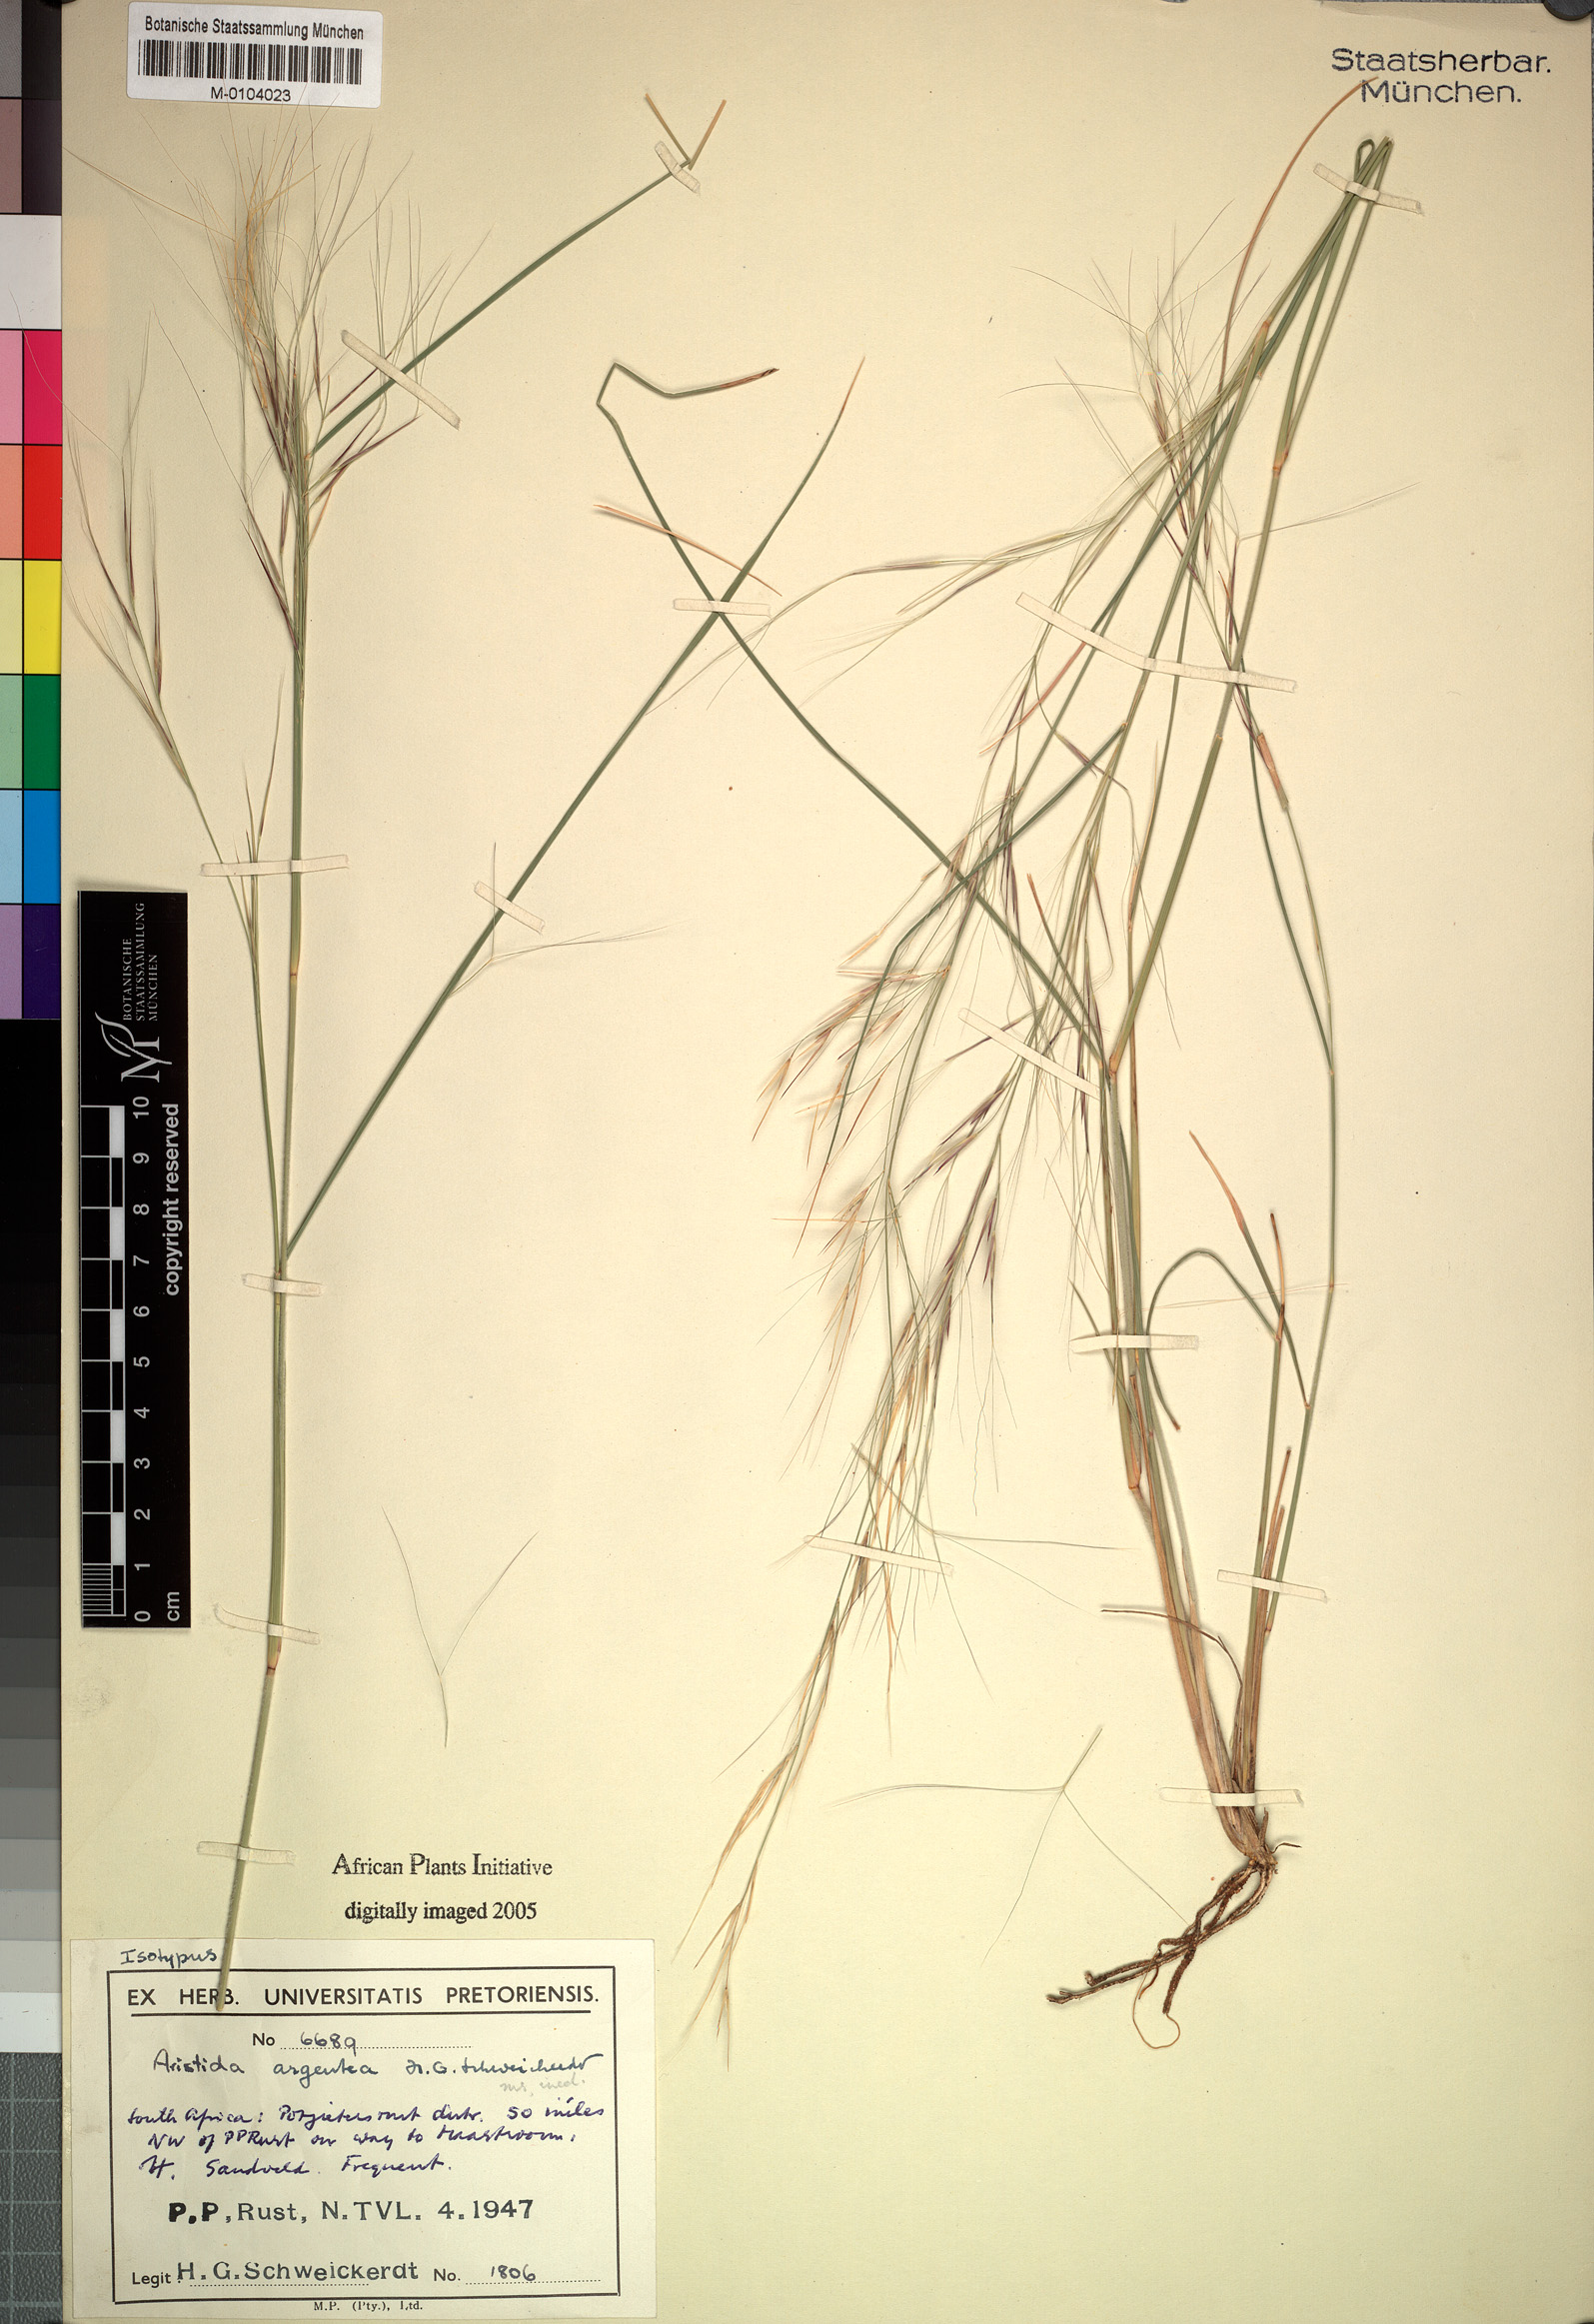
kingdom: Plantae
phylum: Tracheophyta
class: Liliopsida
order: Poales
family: Poaceae
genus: Aristida
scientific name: Aristida mollissima
